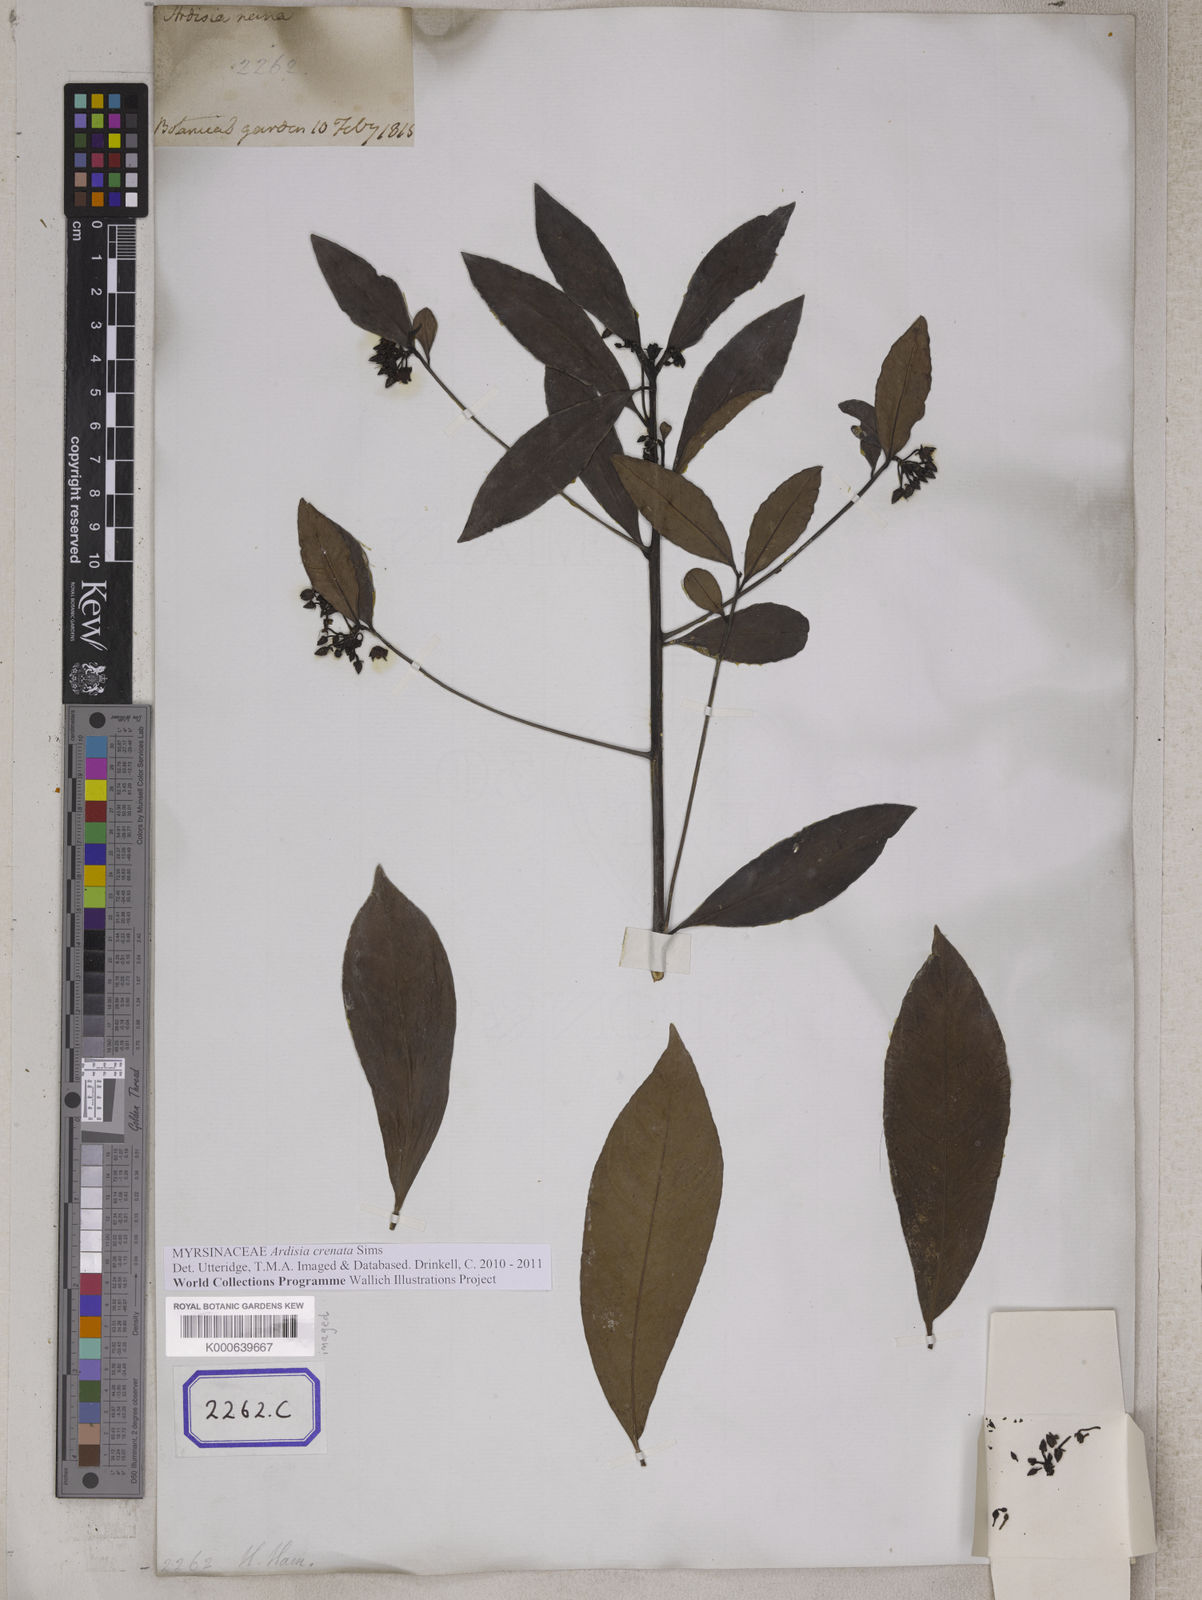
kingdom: Plantae
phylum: Tracheophyta
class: Magnoliopsida
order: Ericales
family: Primulaceae
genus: Ardisia
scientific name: Ardisia crenata
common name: Hen's eyes
